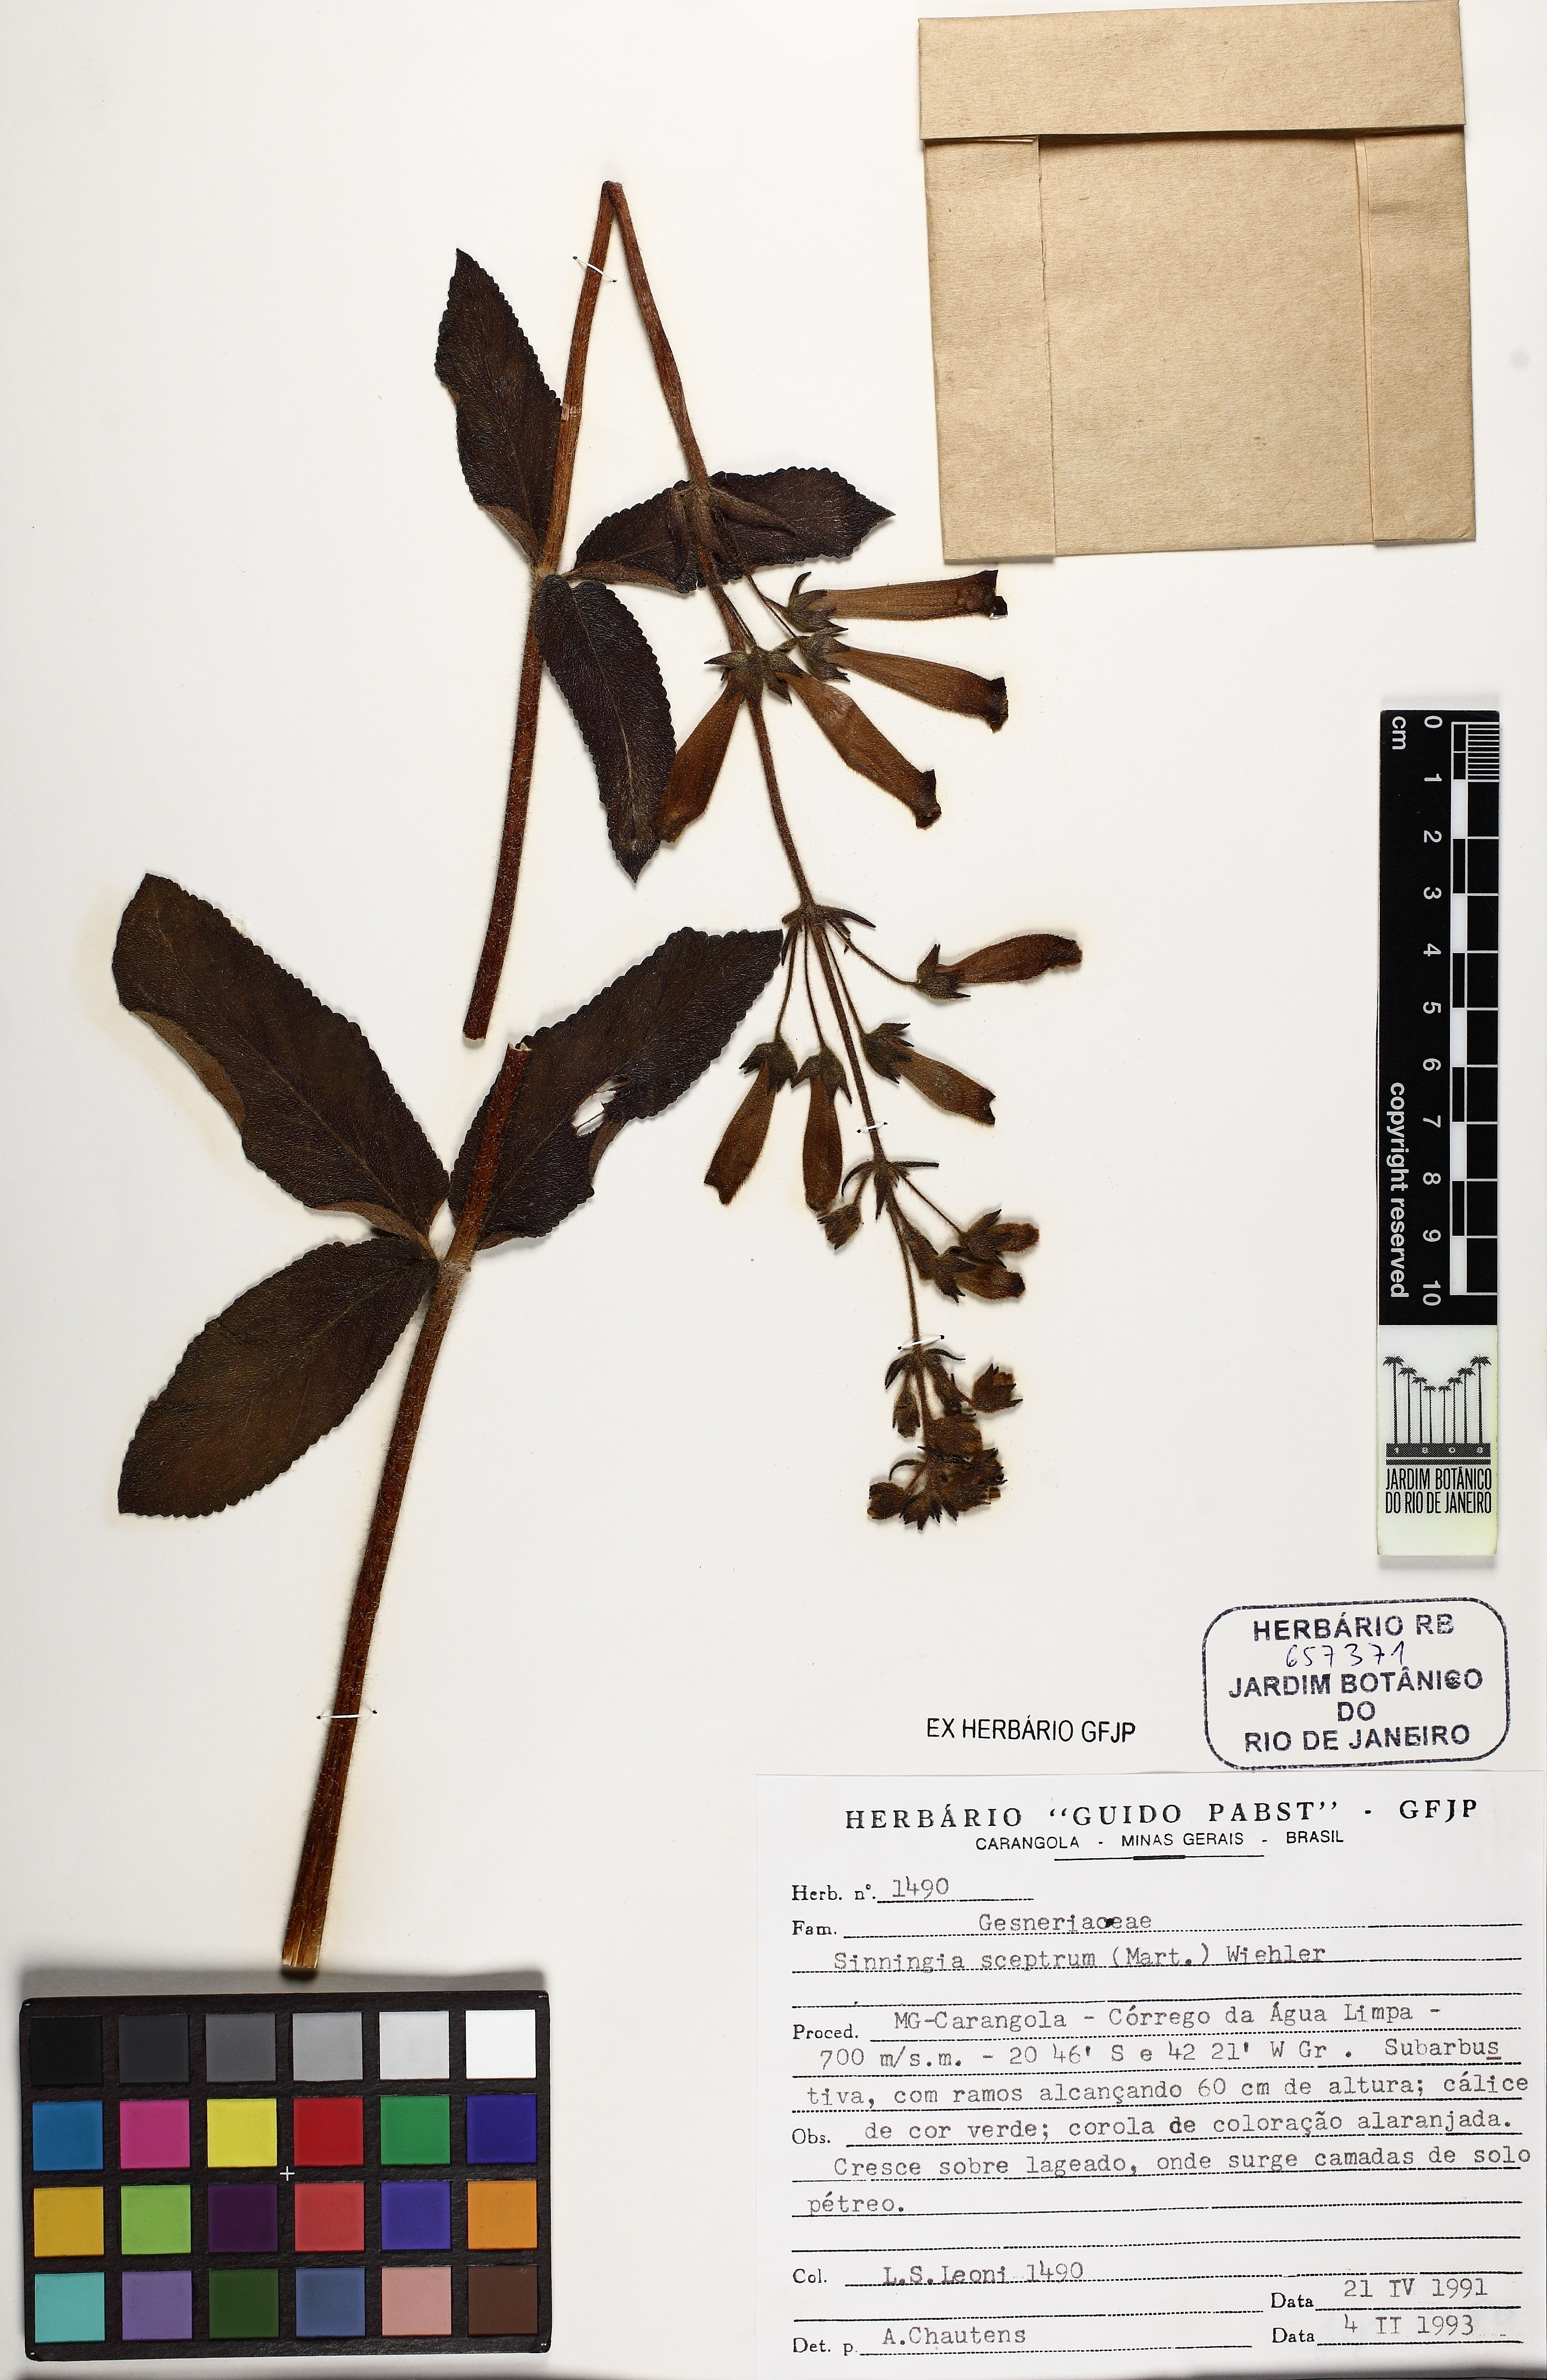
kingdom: Plantae
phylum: Tracheophyta
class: Magnoliopsida
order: Lamiales
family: Gesneriaceae
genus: Sinningia
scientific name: Sinningia sceptrum
